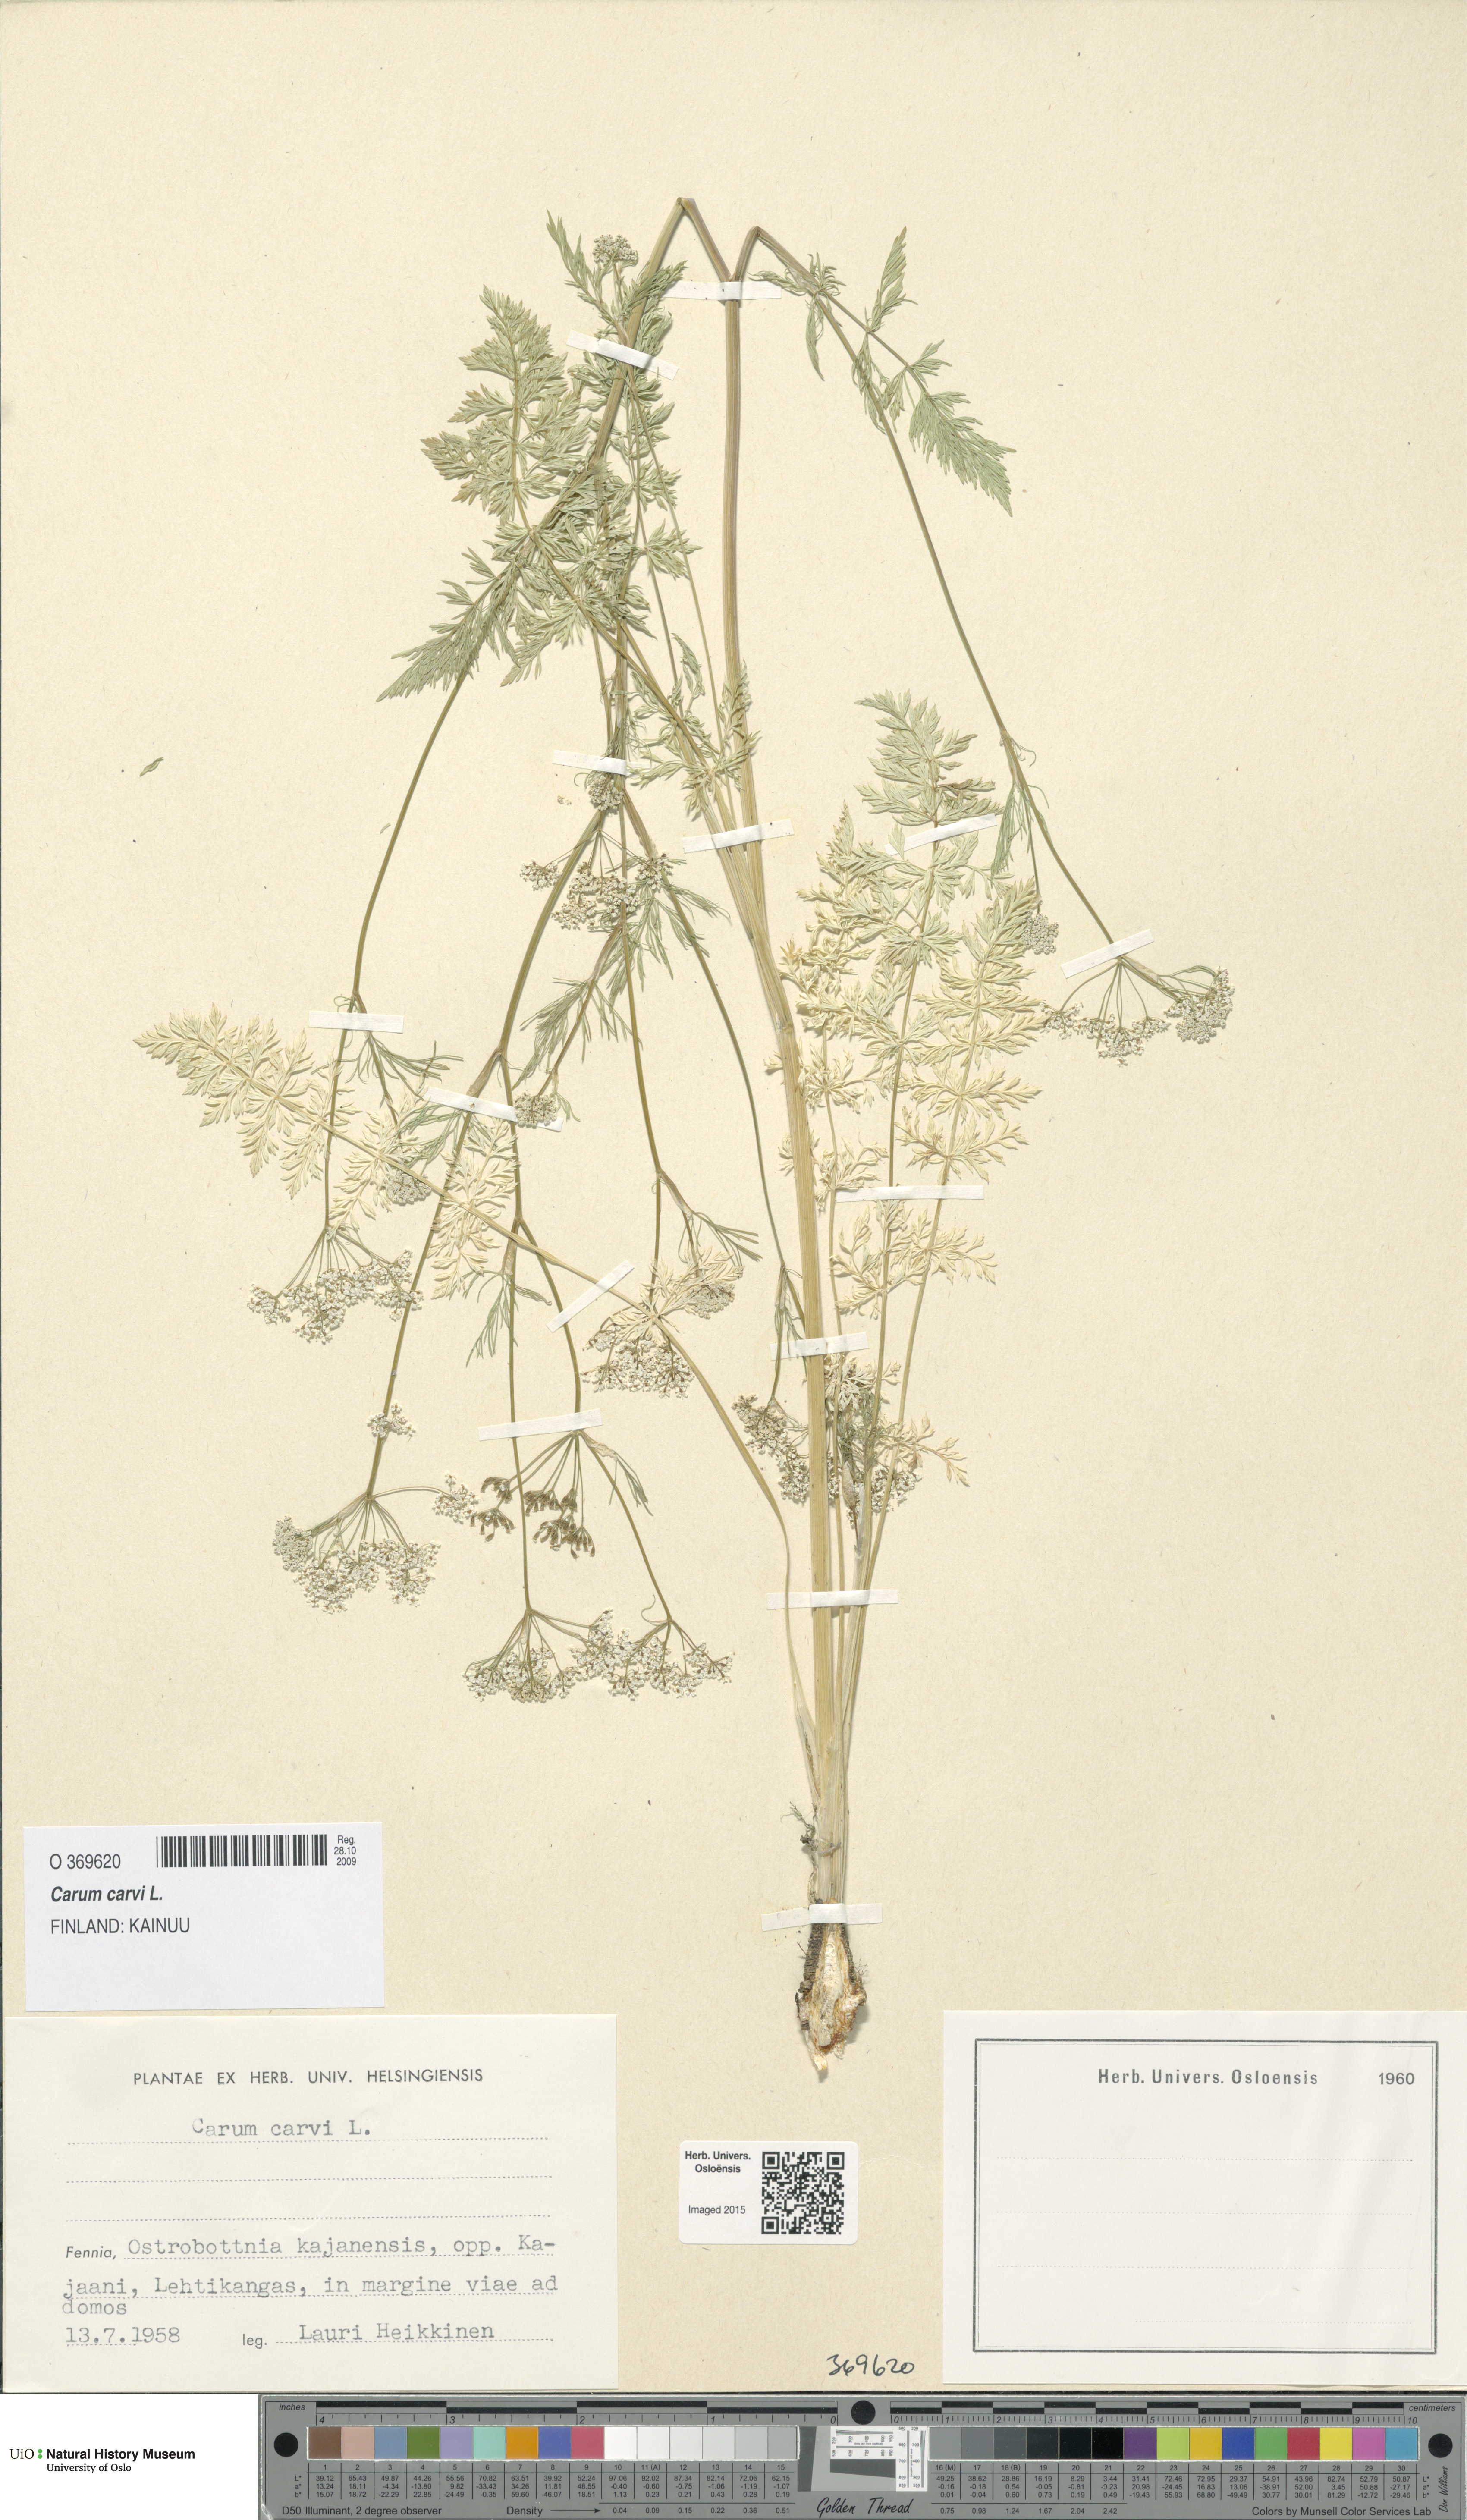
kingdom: Plantae
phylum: Tracheophyta
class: Magnoliopsida
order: Apiales
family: Apiaceae
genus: Carum
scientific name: Carum carvi
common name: Caraway
